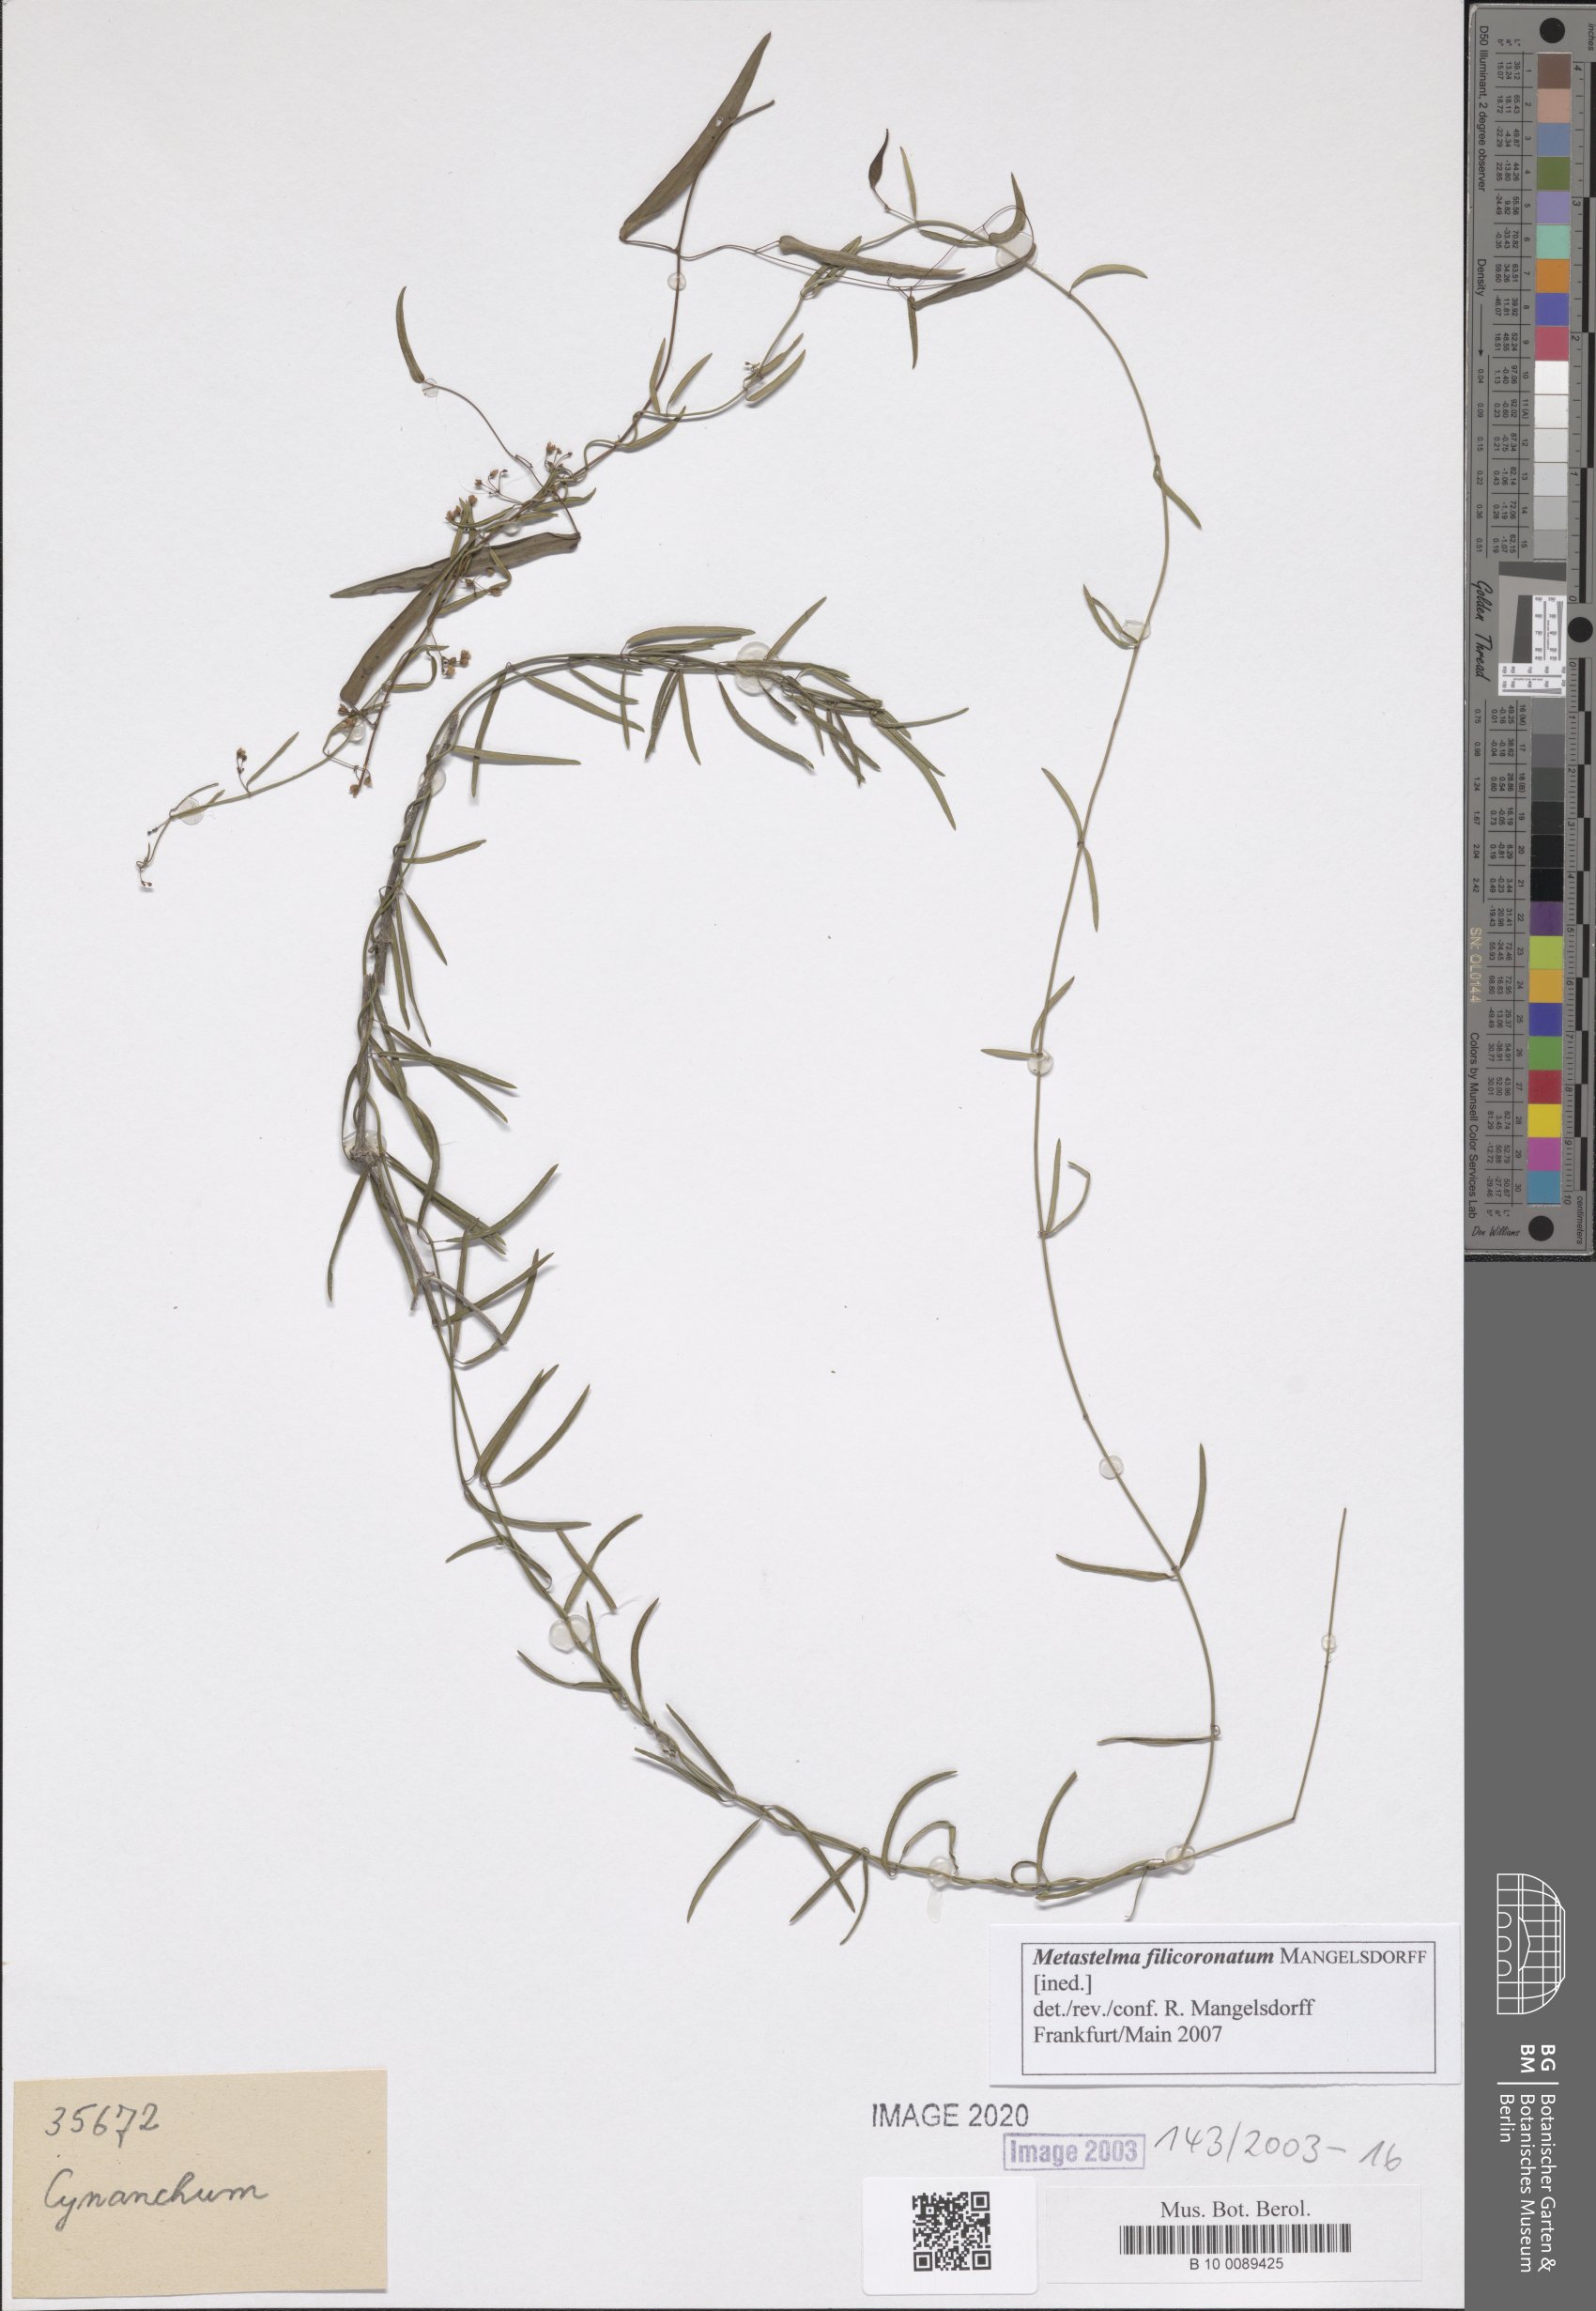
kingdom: Plantae
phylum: Tracheophyta
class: Magnoliopsida
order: Gentianales
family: Apocynaceae
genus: Metastelma
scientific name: Metastelma
